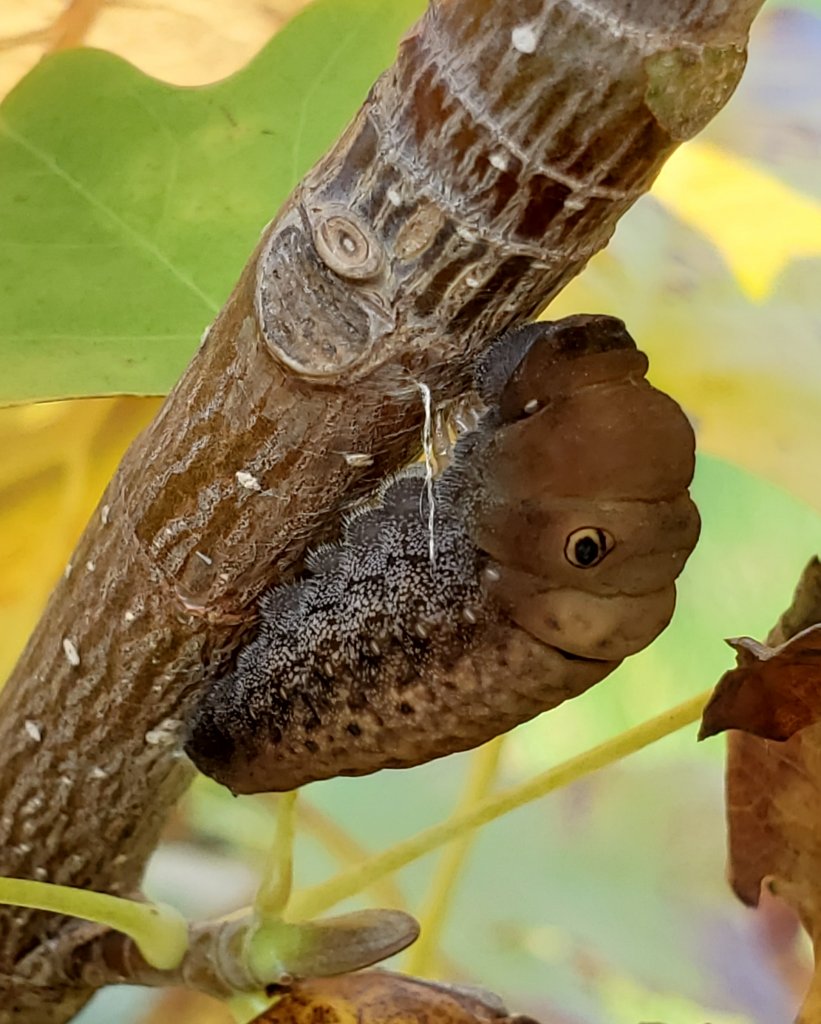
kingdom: Animalia
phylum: Arthropoda
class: Insecta
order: Lepidoptera
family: Papilionidae
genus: Pterourus
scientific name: Pterourus
